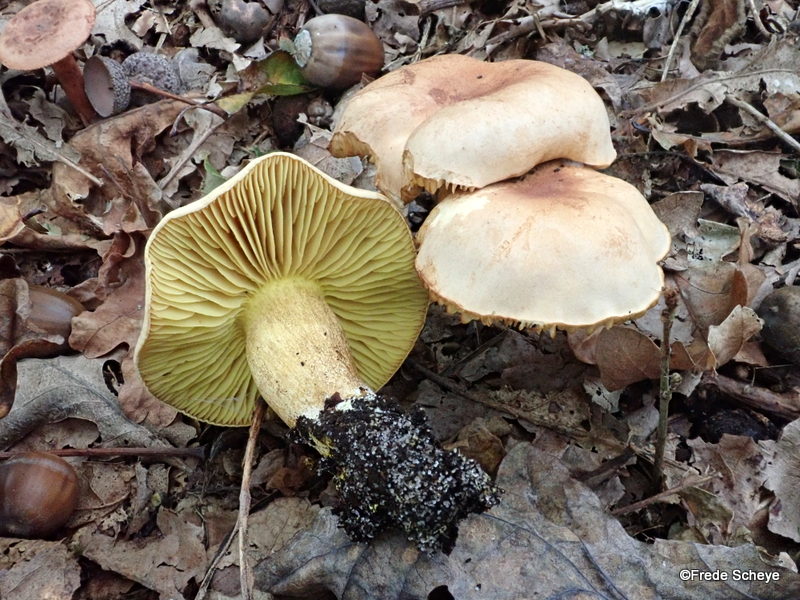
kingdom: Fungi
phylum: Basidiomycota
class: Agaricomycetes
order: Agaricales
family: Tricholomataceae
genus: Tricholoma
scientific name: Tricholoma sulphureum
